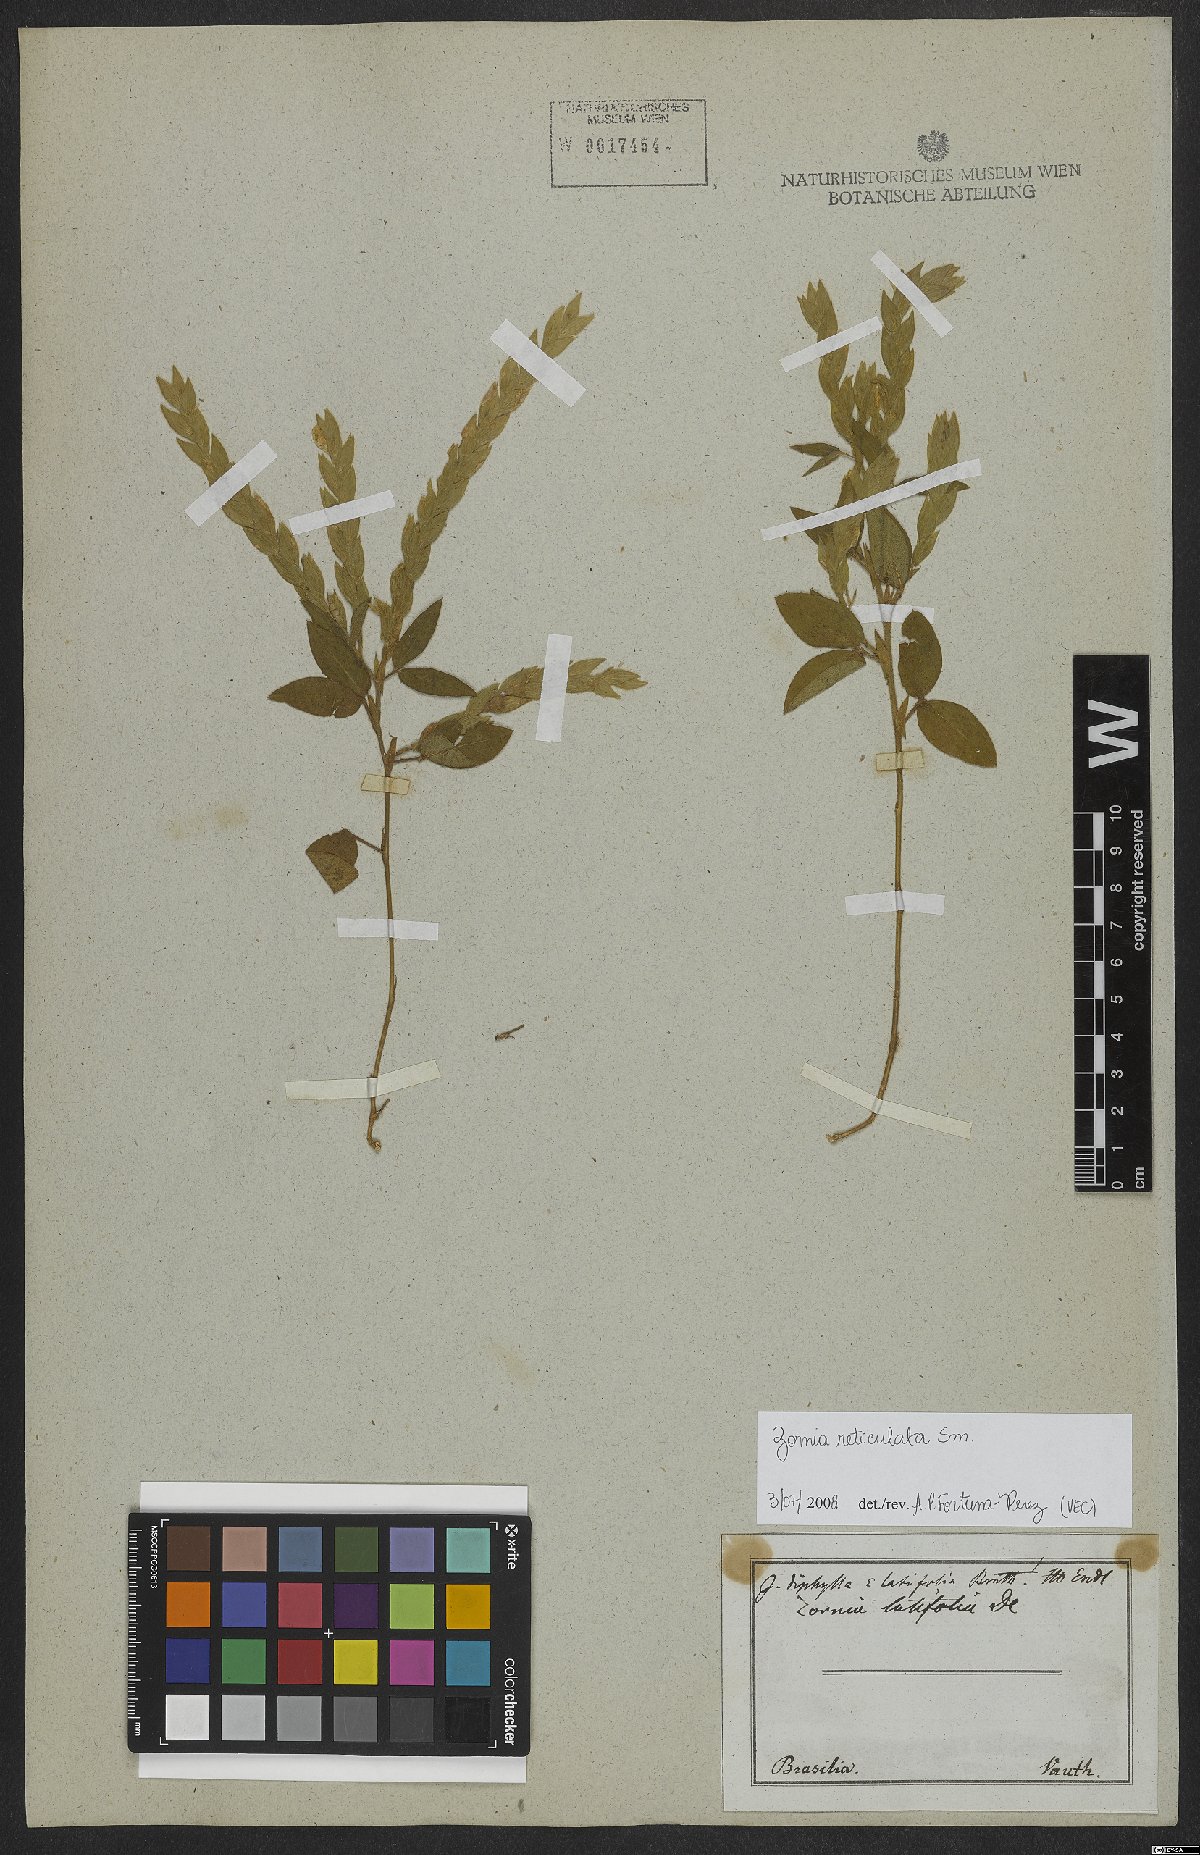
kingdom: Plantae
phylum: Tracheophyta
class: Magnoliopsida
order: Fabales
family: Fabaceae
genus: Zornia
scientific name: Zornia reticulata
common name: Reticulate viperina
